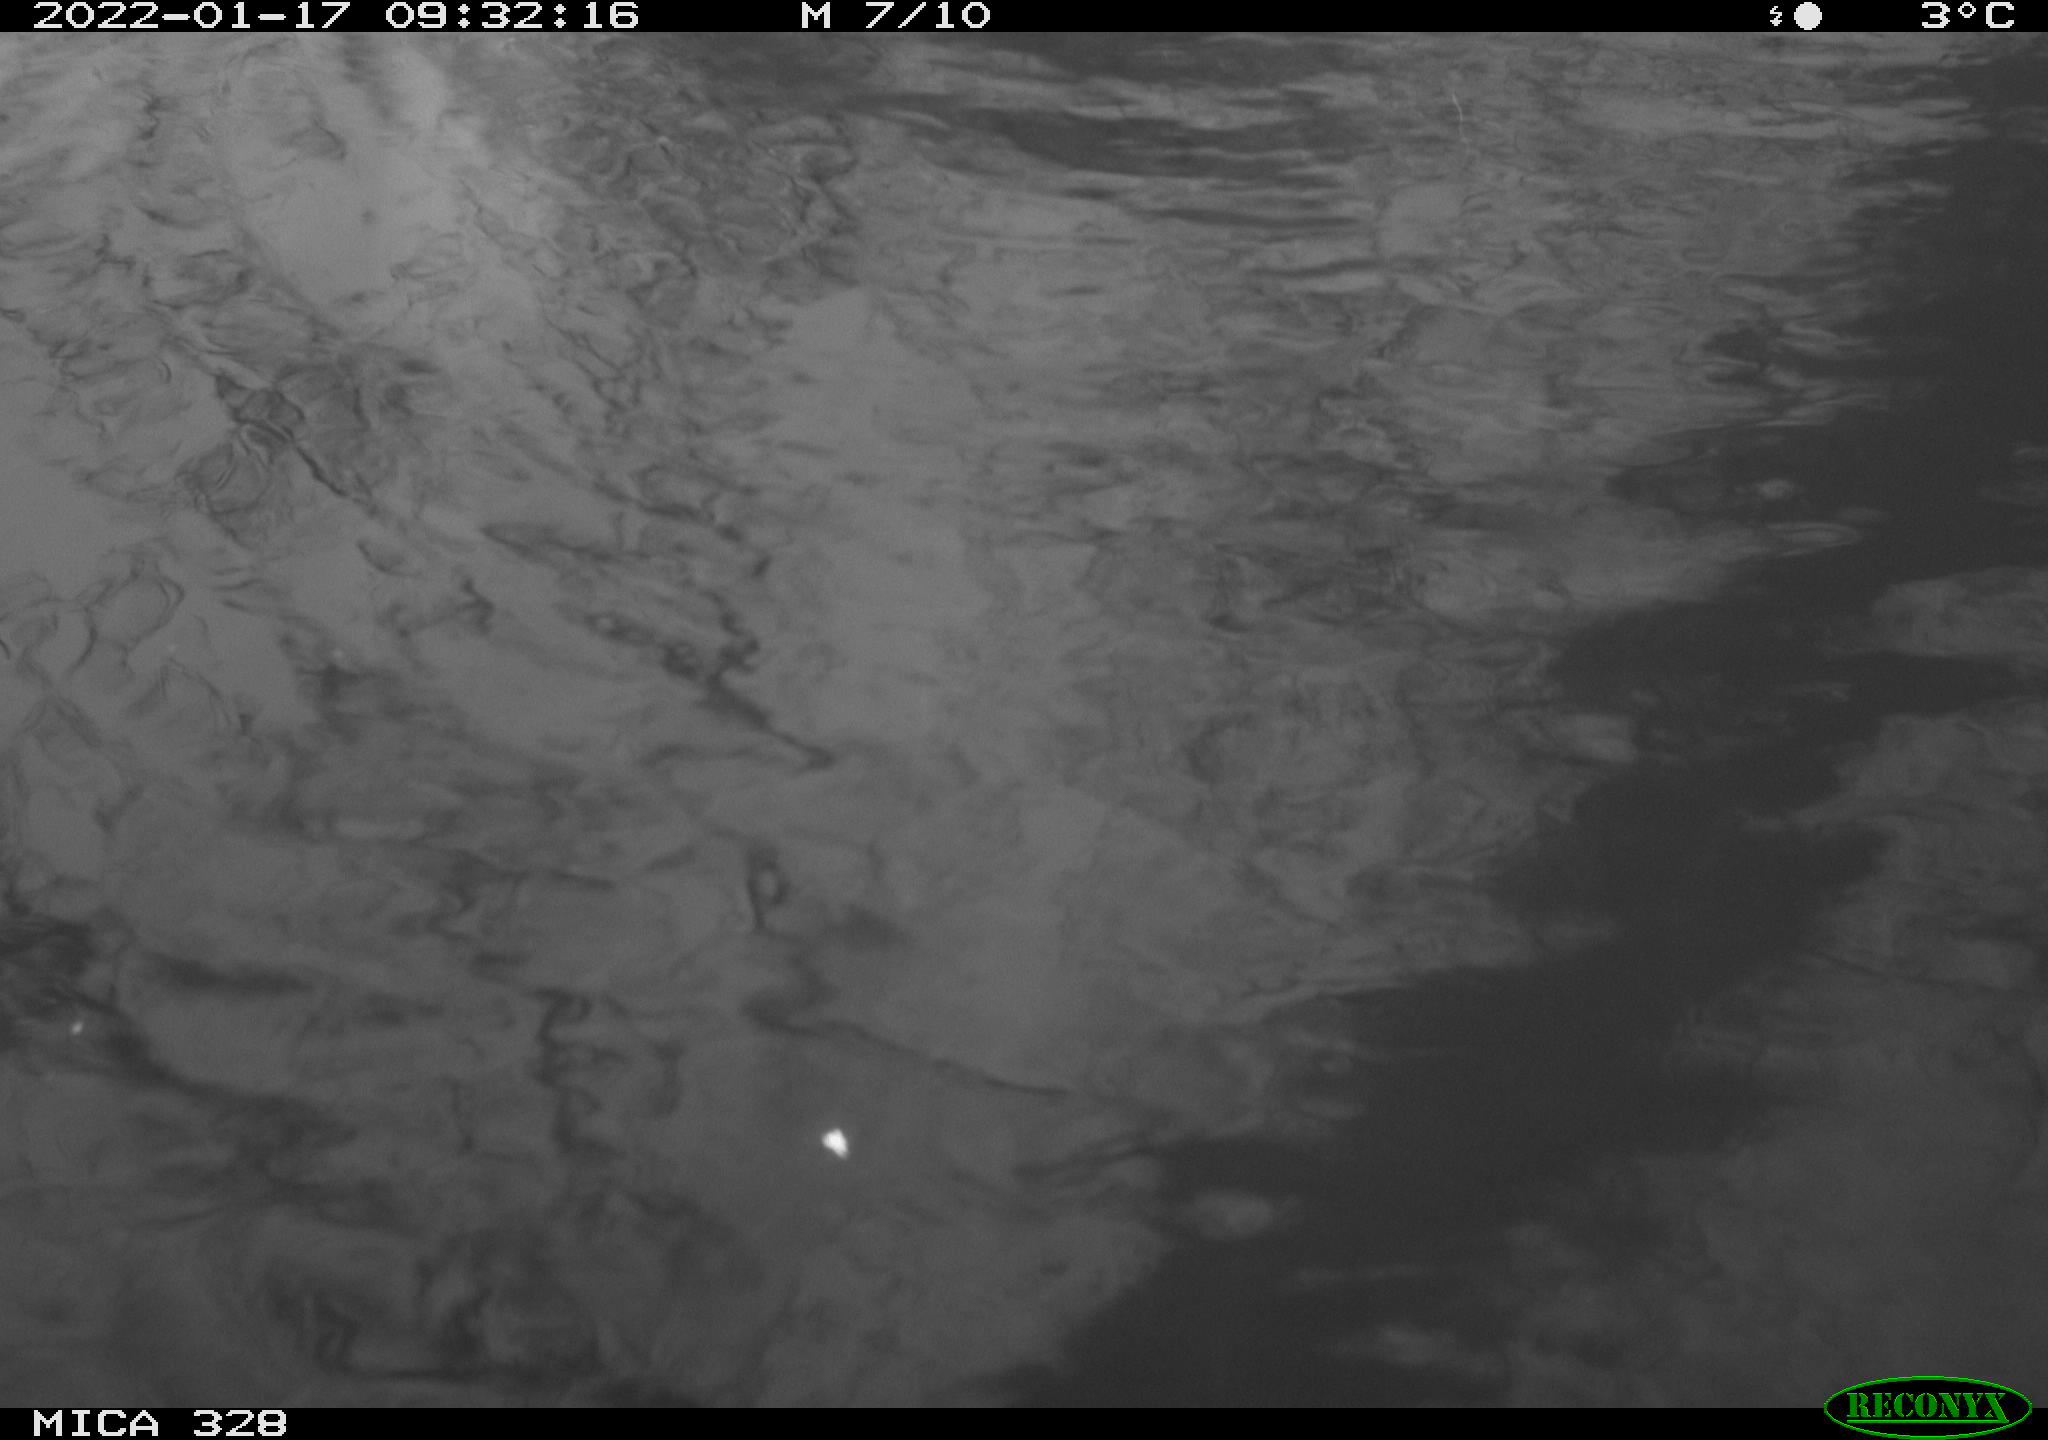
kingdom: Animalia
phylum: Chordata
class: Mammalia
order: Rodentia
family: Cricetidae
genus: Ondatra
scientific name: Ondatra zibethicus
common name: Muskrat
